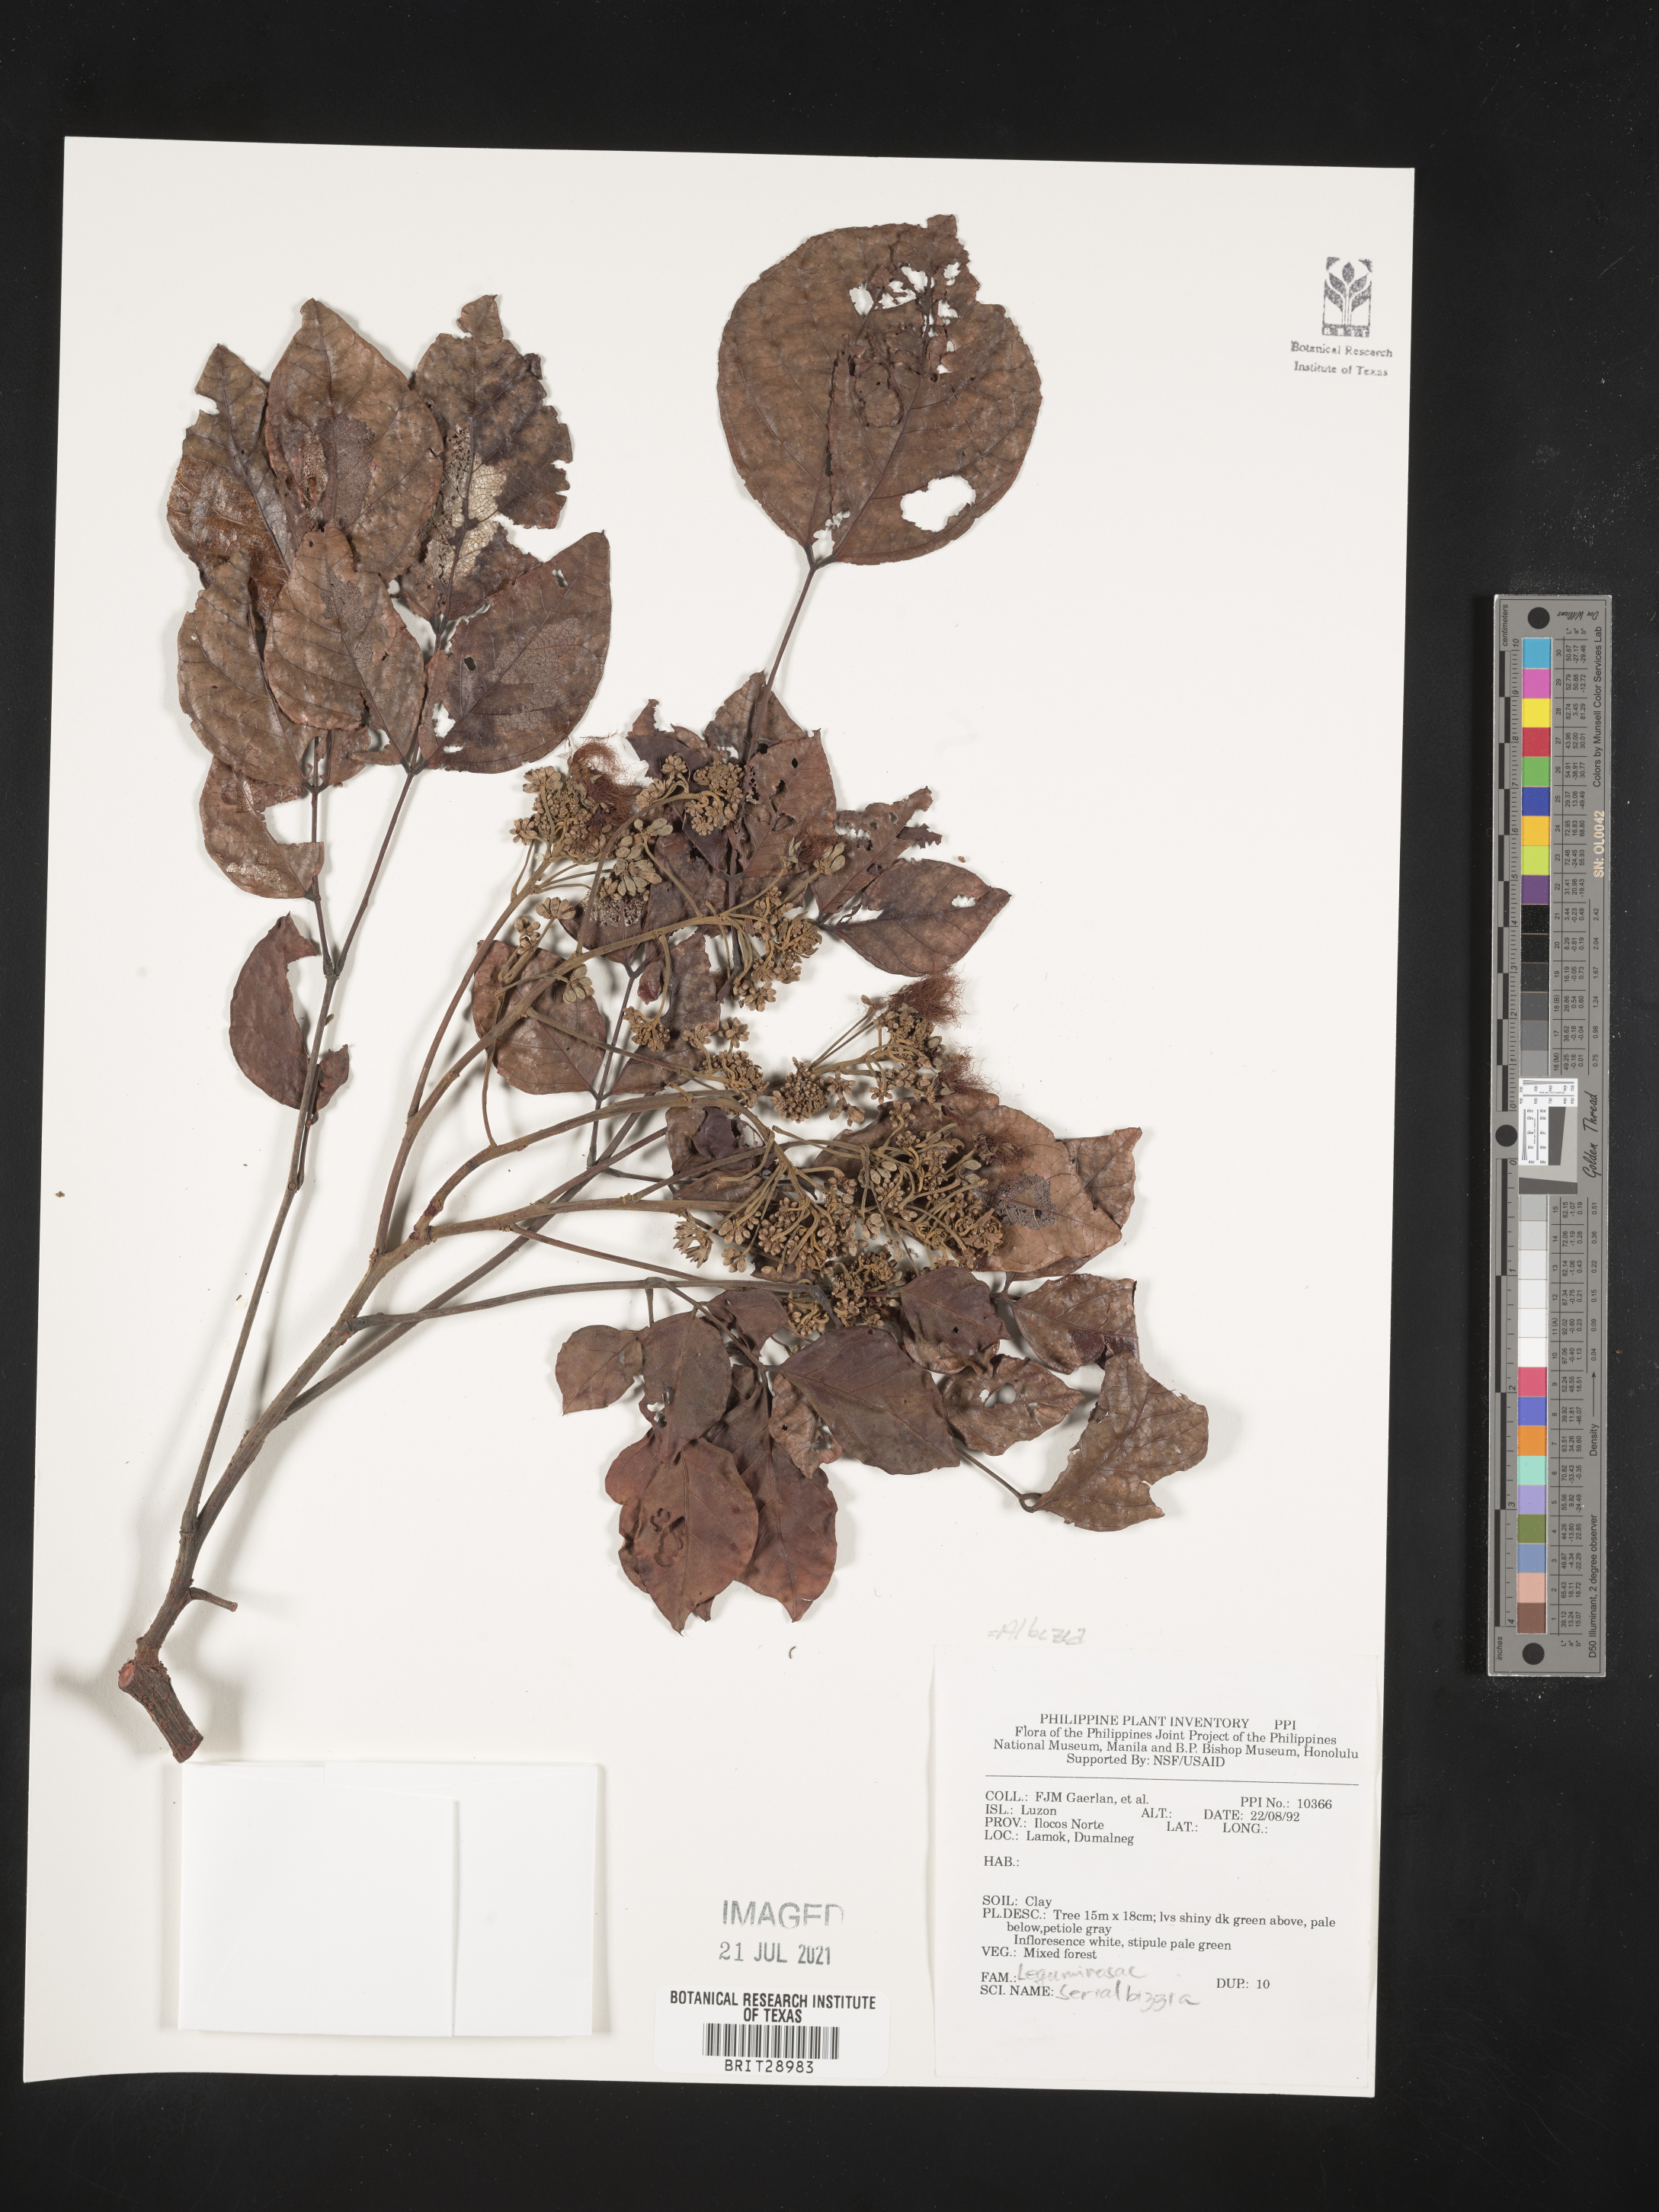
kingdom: Plantae
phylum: Tracheophyta
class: Magnoliopsida
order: Fabales
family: Fabaceae
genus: Albizia
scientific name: Albizia
